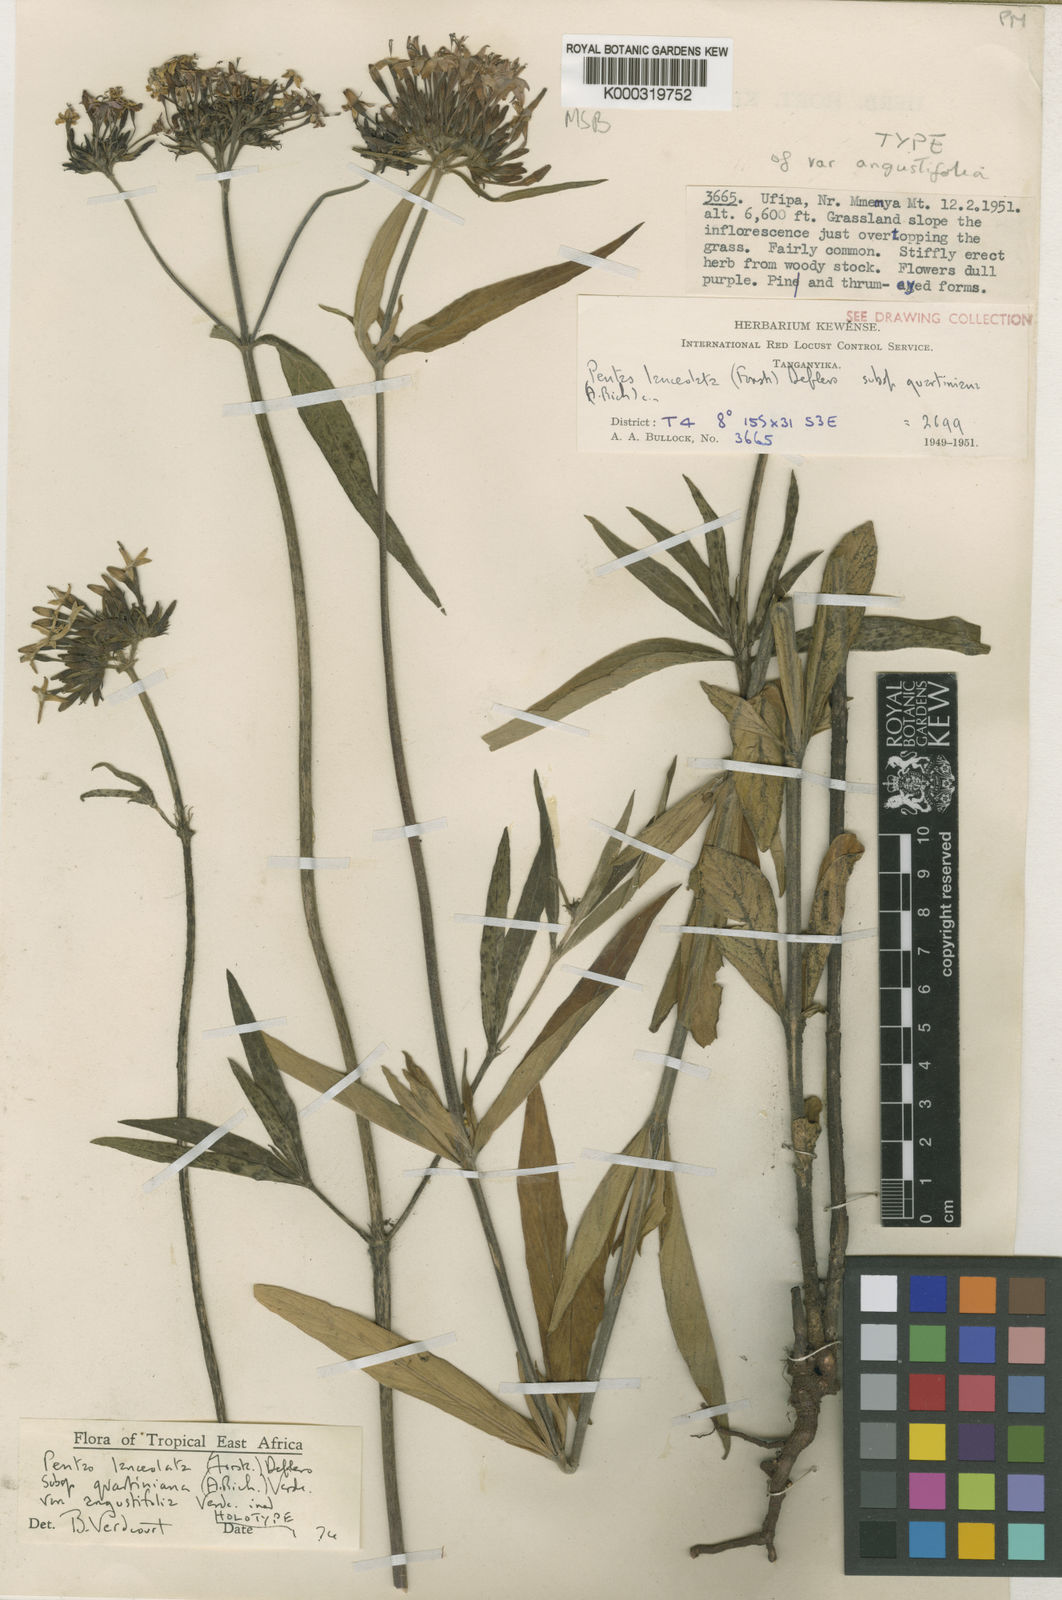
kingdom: Plantae
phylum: Tracheophyta
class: Magnoliopsida
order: Gentianales
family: Rubiaceae
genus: Pentas
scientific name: Pentas lanceolata
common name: Egyptian starcluster
